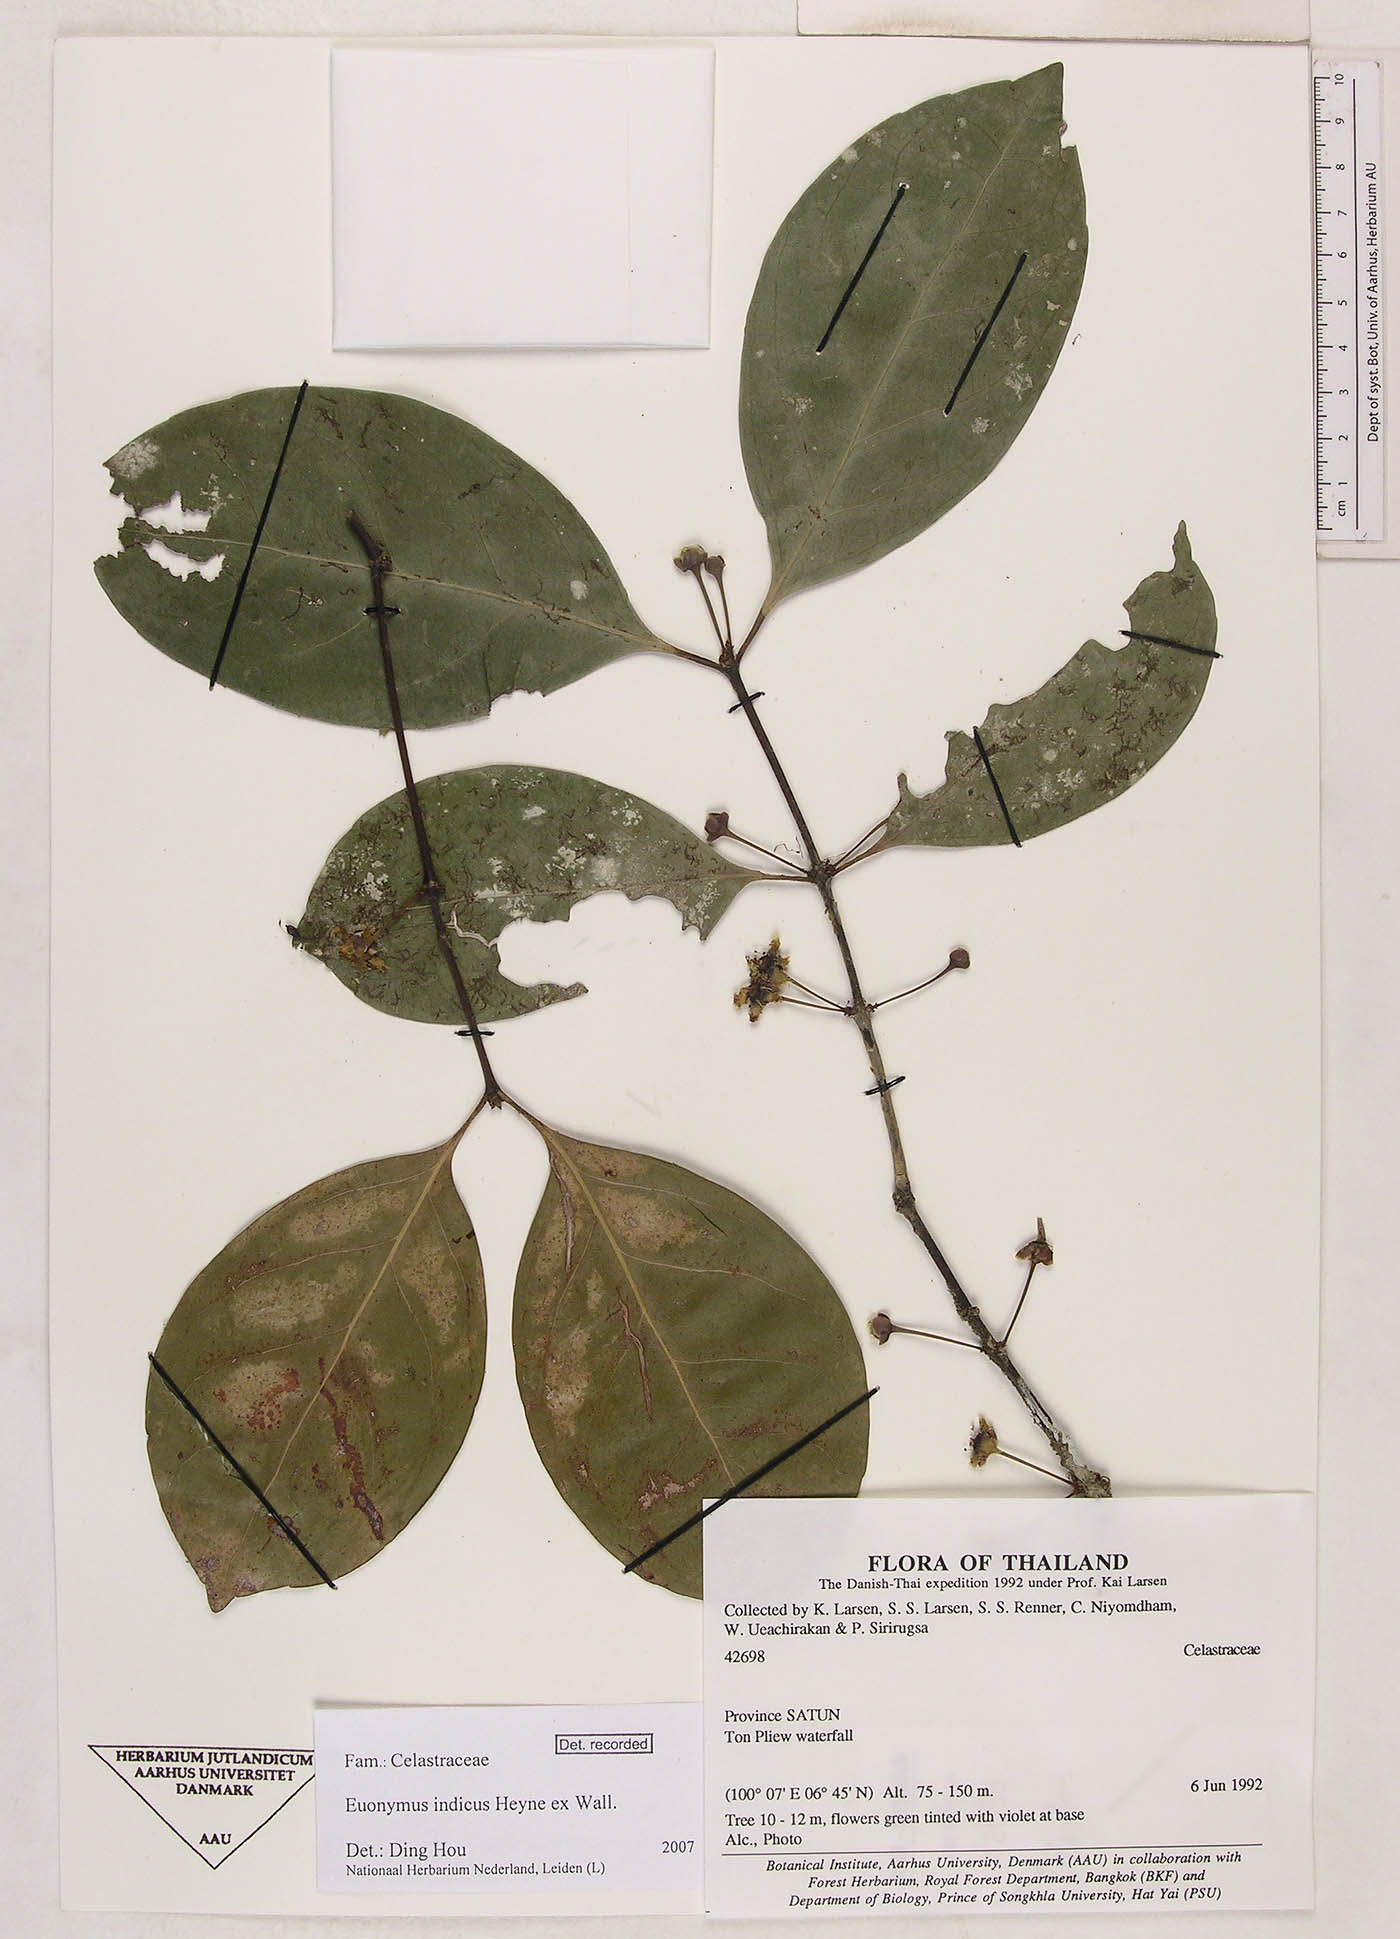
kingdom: Plantae
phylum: Tracheophyta
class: Magnoliopsida
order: Celastrales
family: Celastraceae
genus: Euonymus
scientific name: Euonymus indicus
